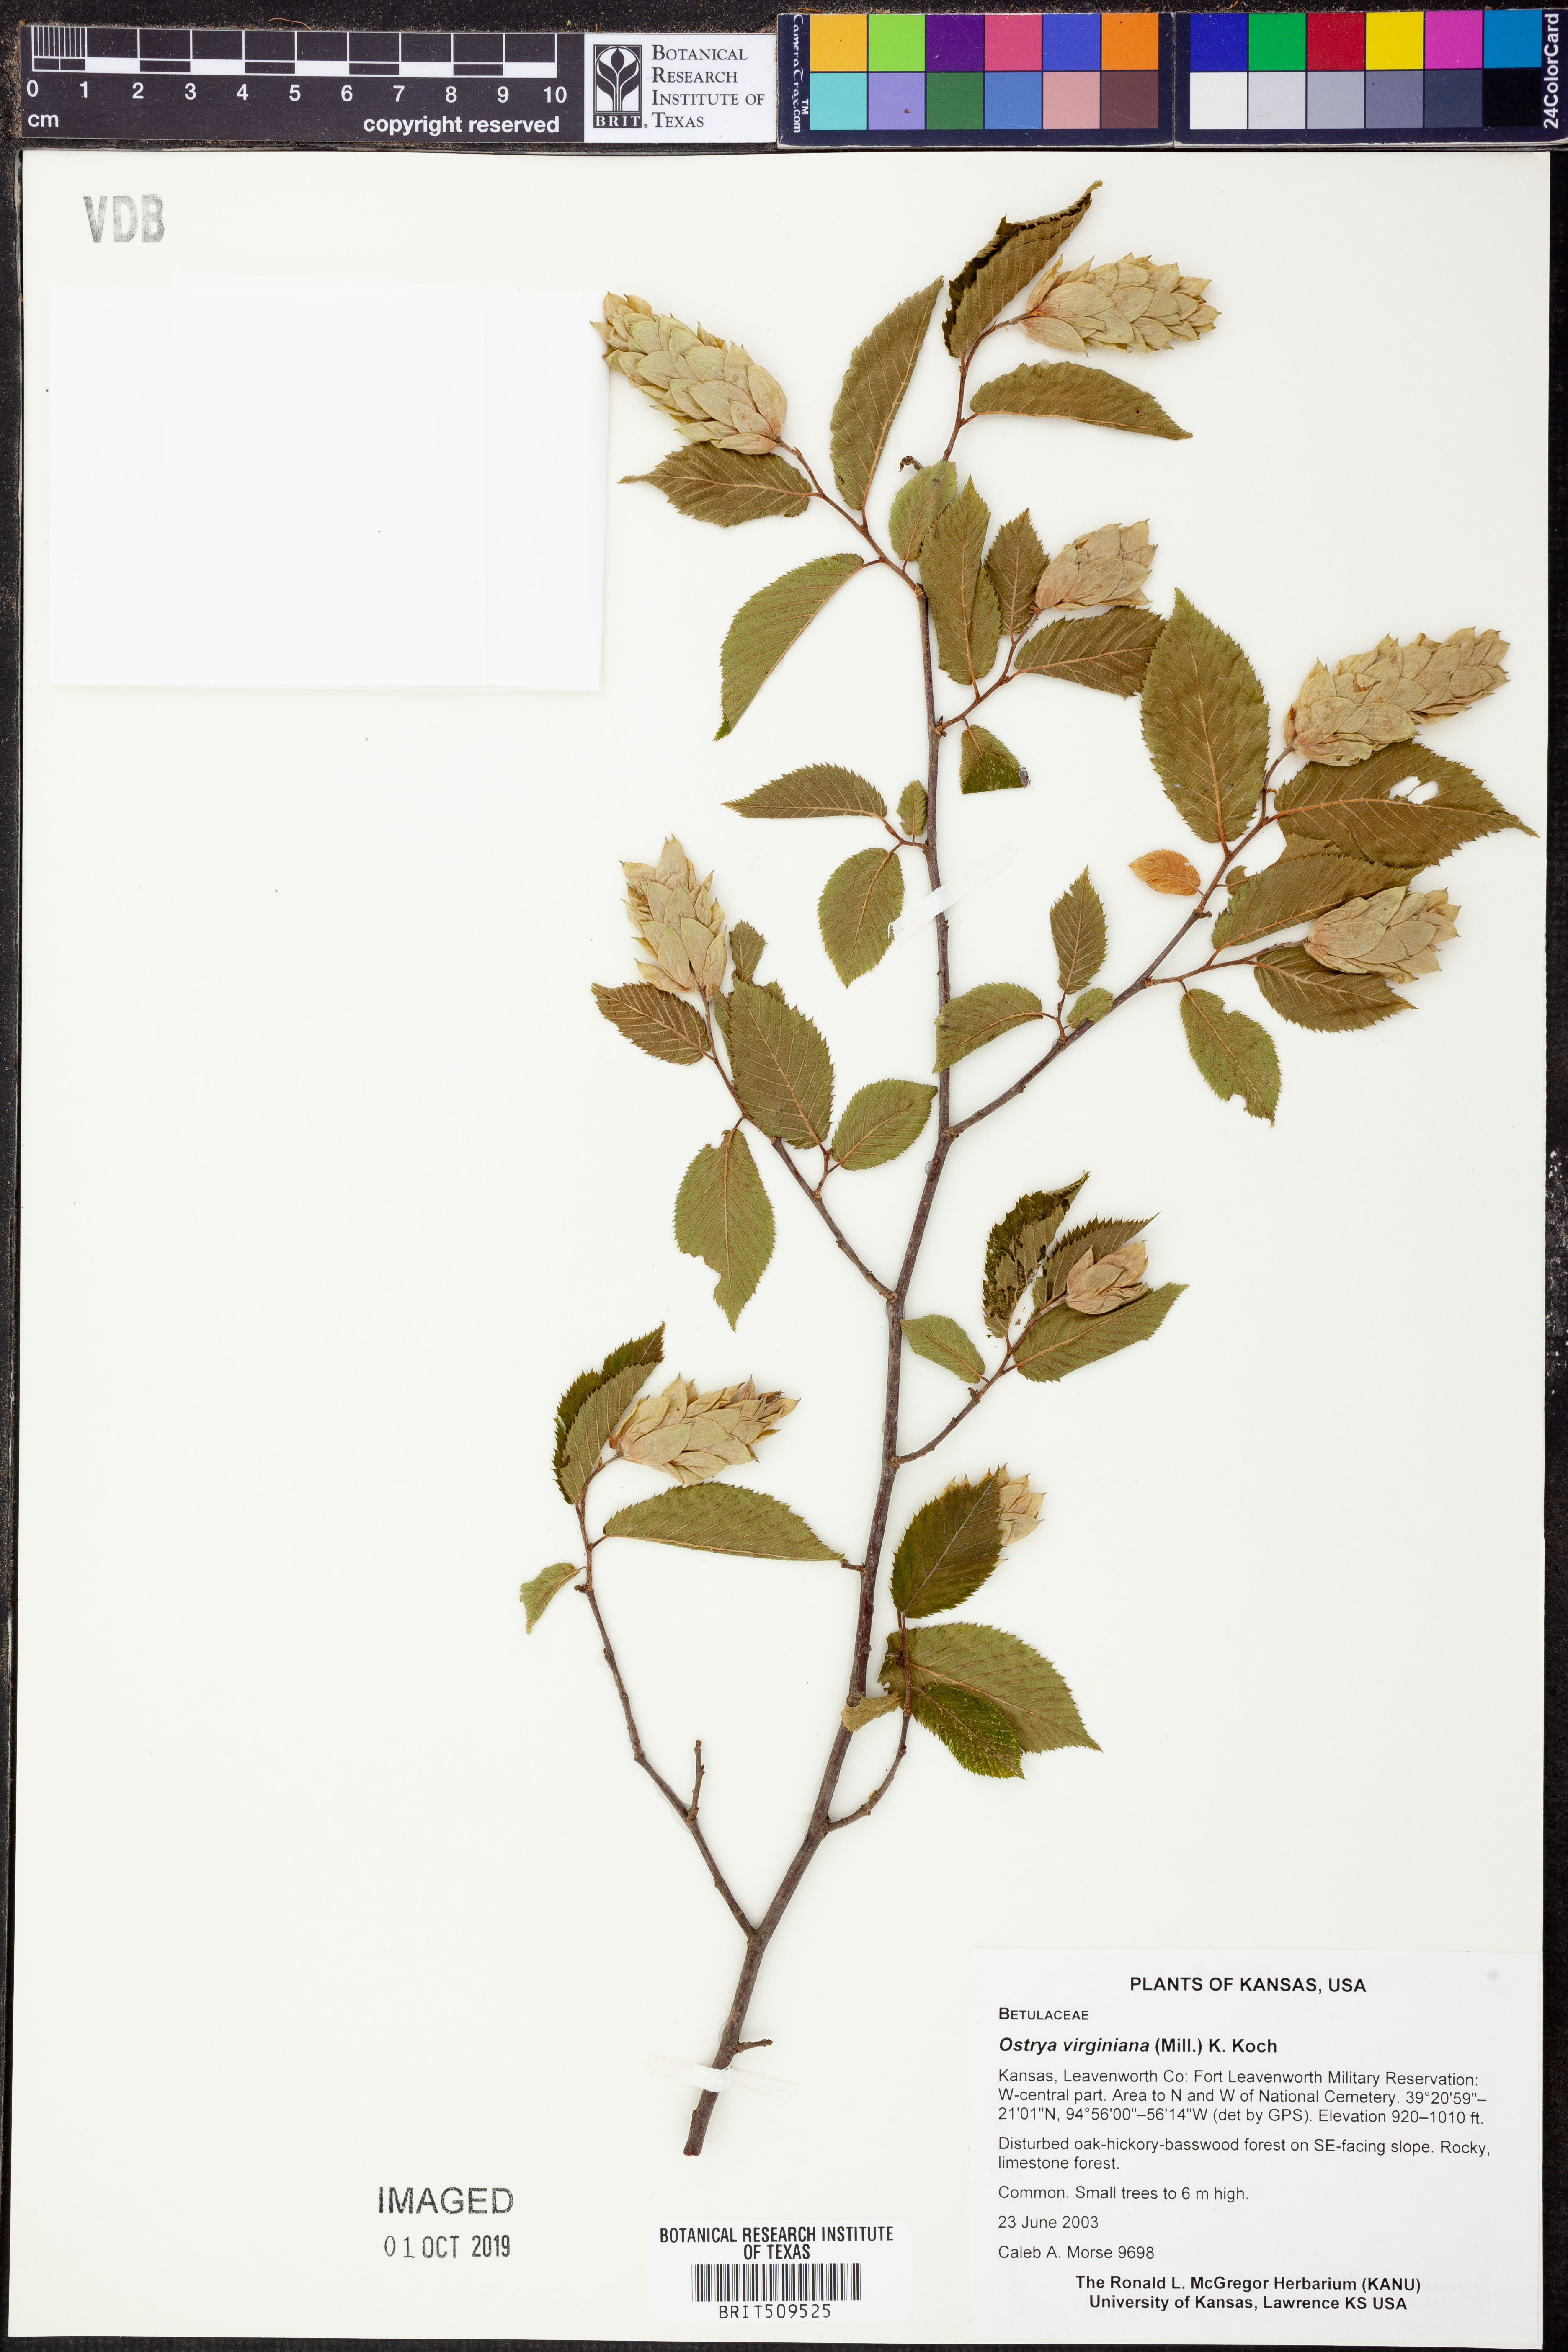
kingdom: Plantae
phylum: Tracheophyta
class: Magnoliopsida
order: Fagales
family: Betulaceae
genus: Ostrya
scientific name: Ostrya virginiana
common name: Ironwood
